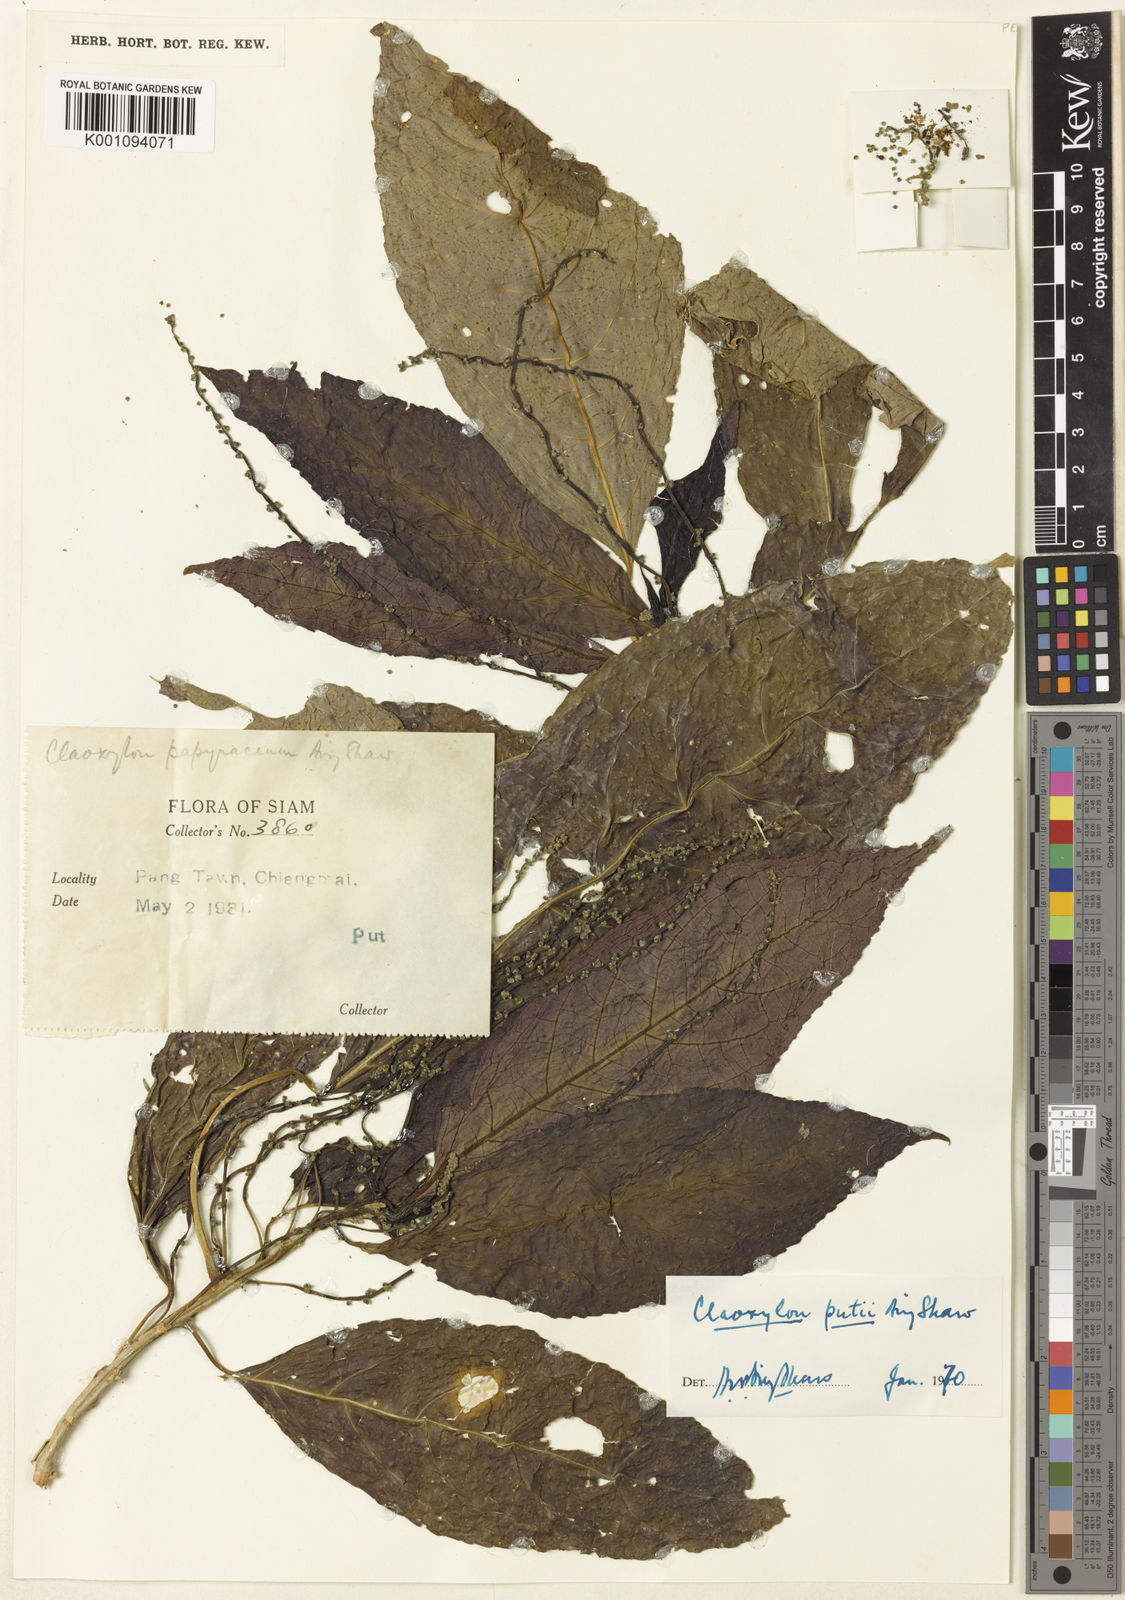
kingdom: Plantae
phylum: Tracheophyta
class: Magnoliopsida
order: Malpighiales
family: Euphorbiaceae
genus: Claoxylon
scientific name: Claoxylon longifolium
